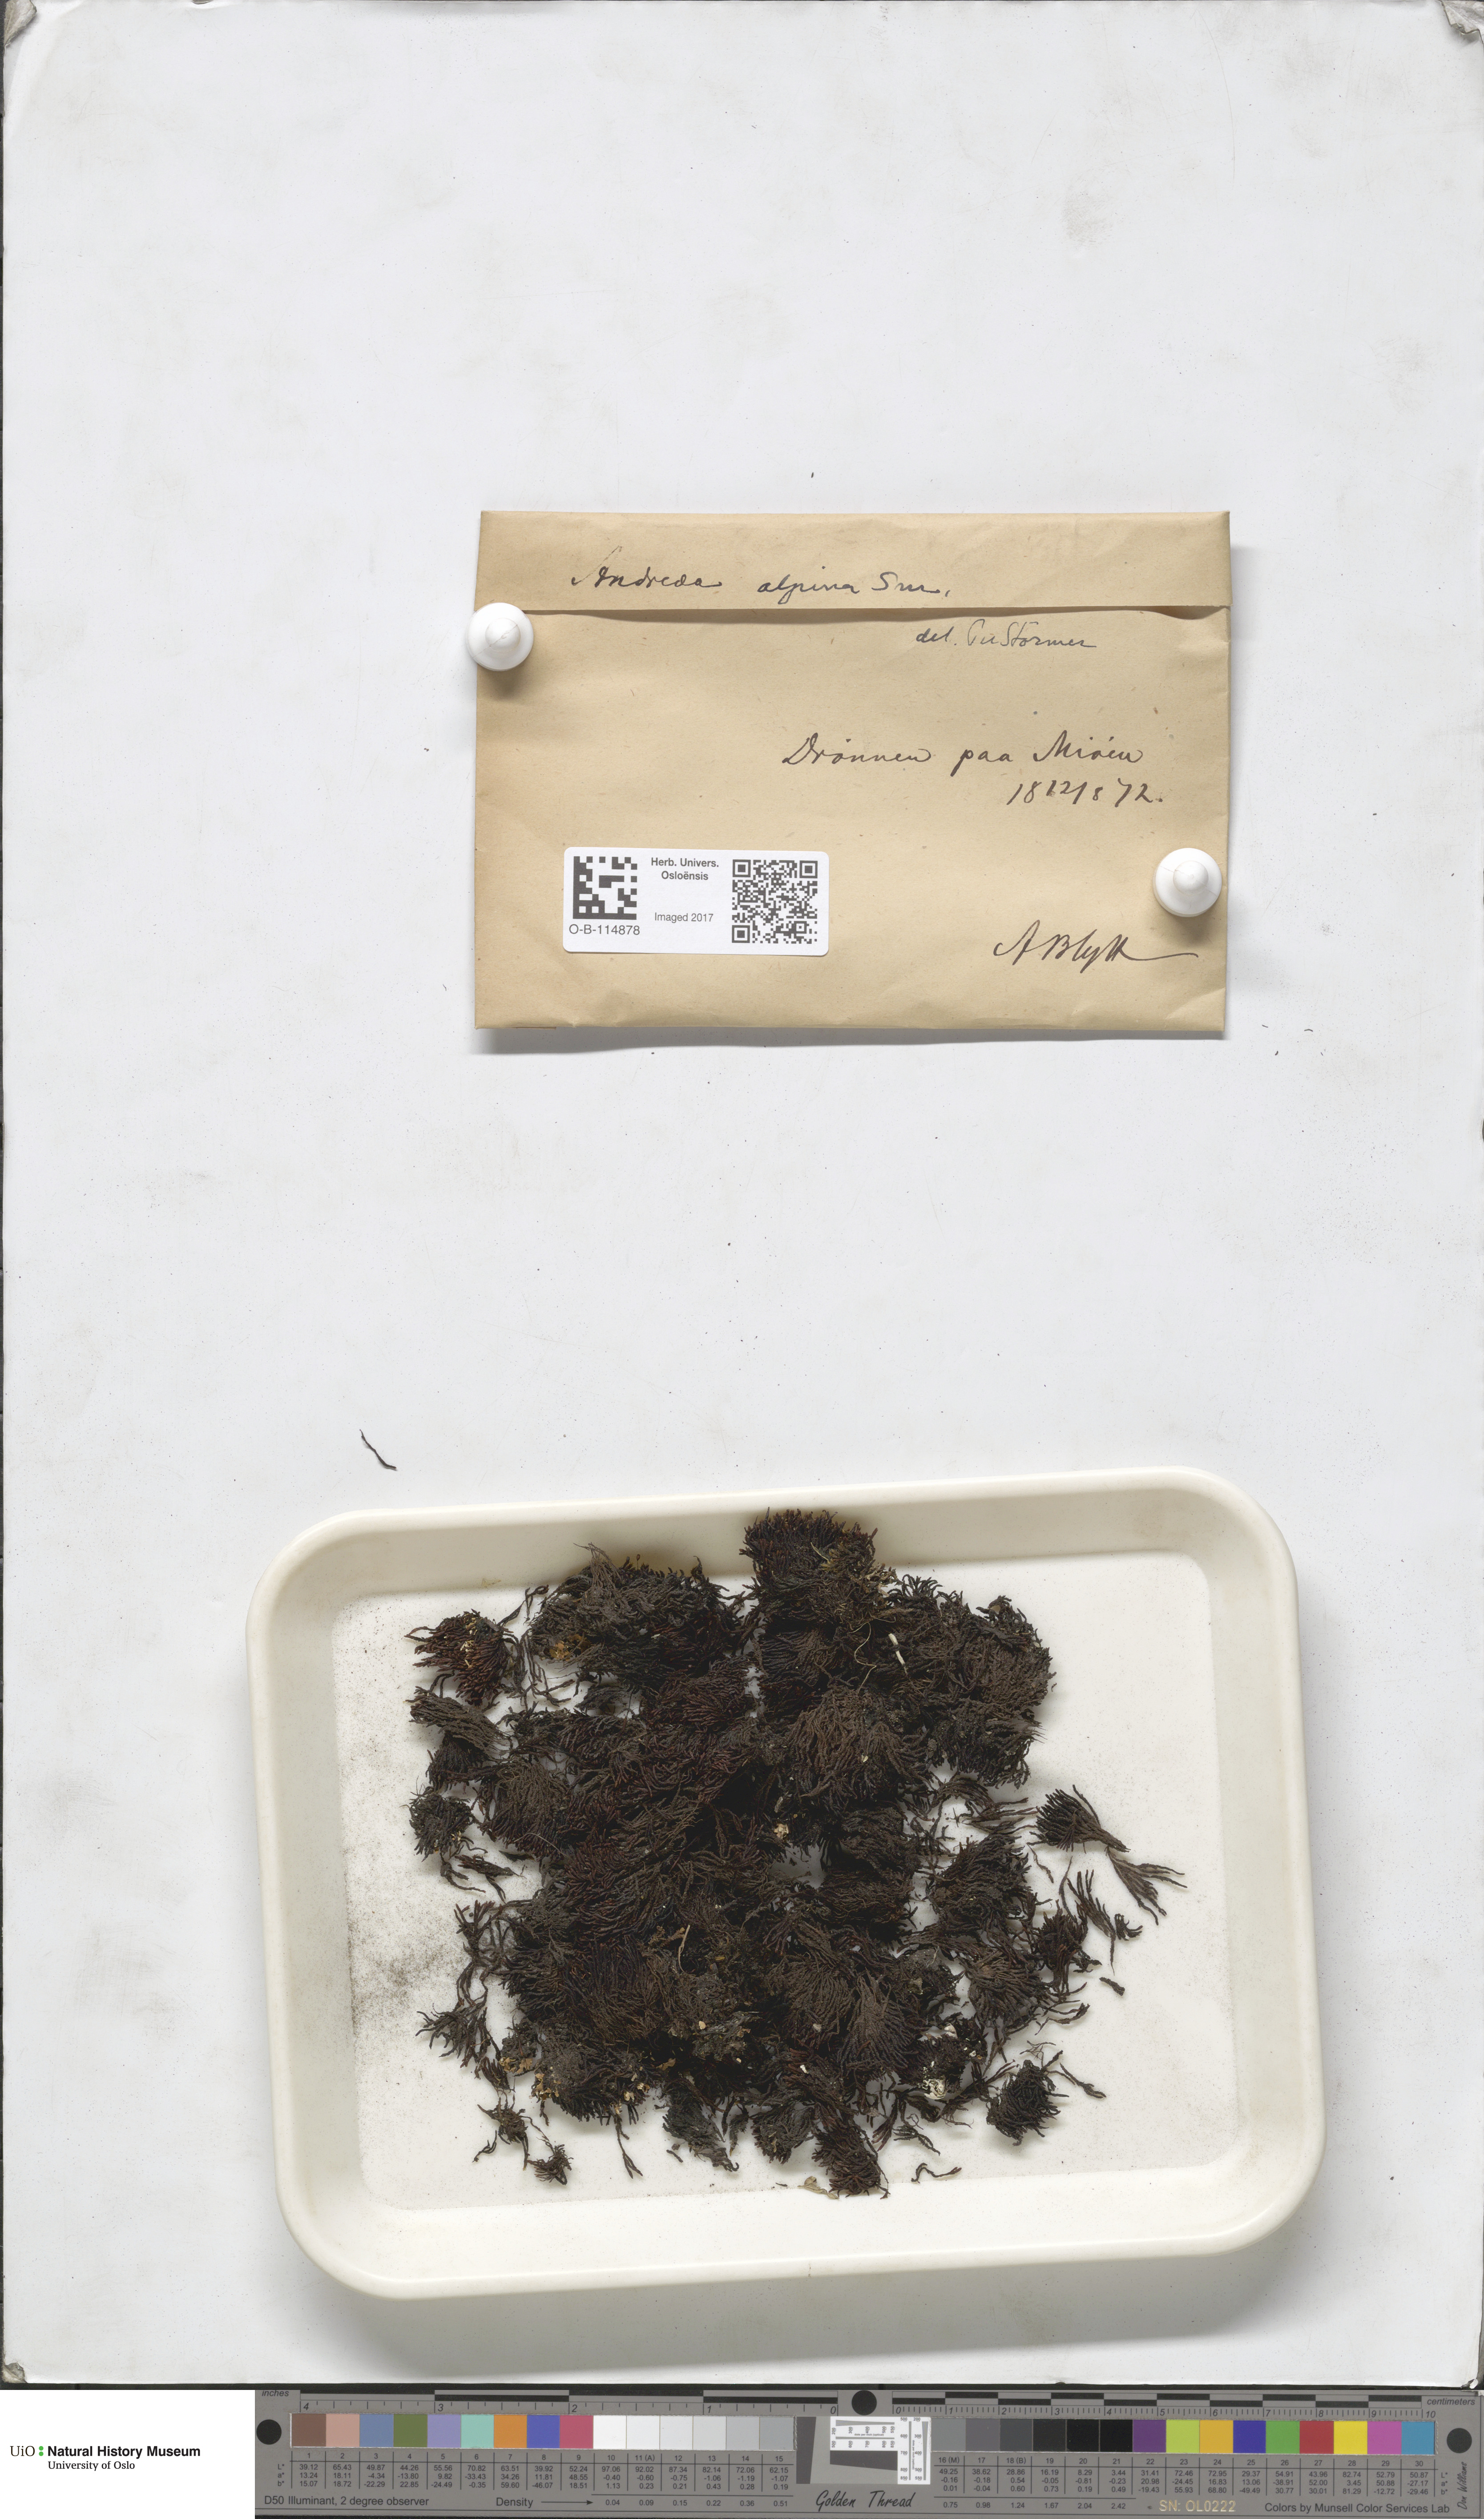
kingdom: Plantae
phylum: Bryophyta
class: Andreaeopsida
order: Andreaeales
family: Andreaeaceae
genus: Andreaea
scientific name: Andreaea hookeri
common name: Alpine rock-moss
